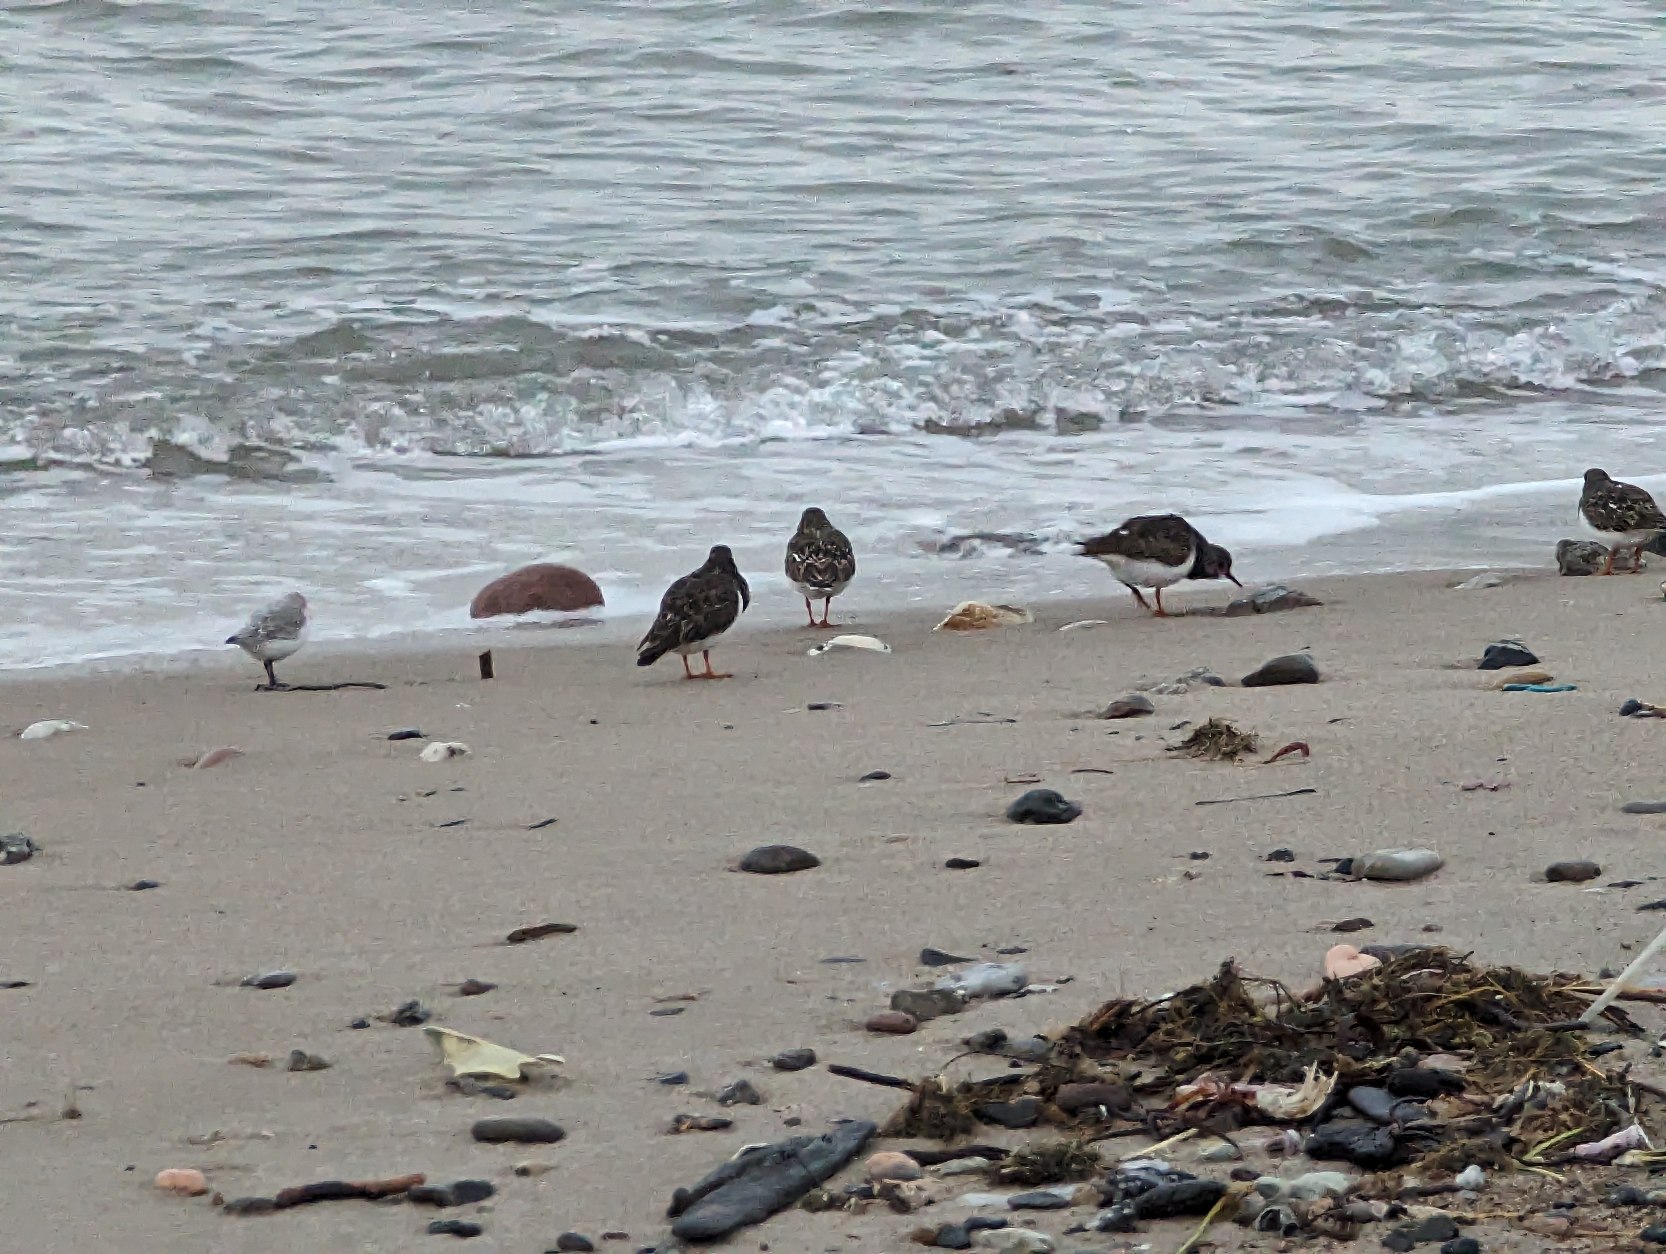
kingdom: Animalia
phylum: Chordata
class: Aves
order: Charadriiformes
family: Scolopacidae
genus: Arenaria
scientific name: Arenaria interpres
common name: Stenvender
